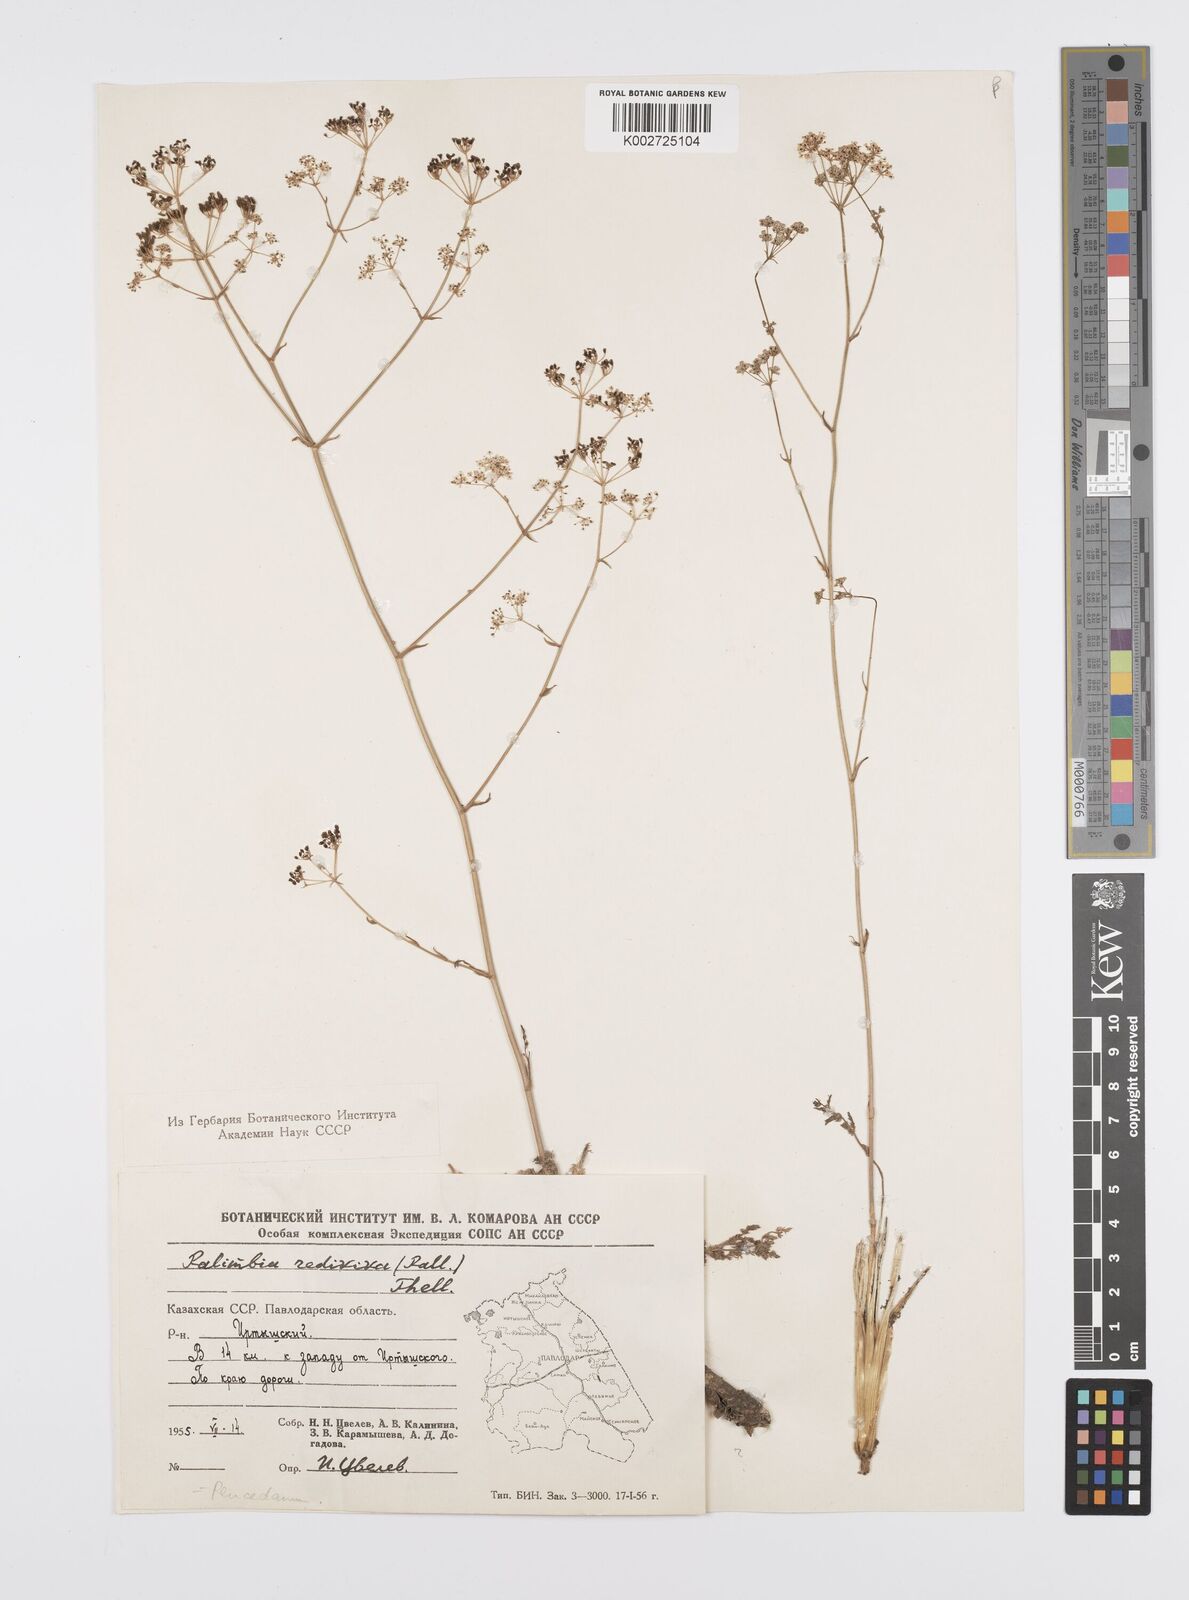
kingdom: Plantae
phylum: Tracheophyta
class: Magnoliopsida
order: Apiales
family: Apiaceae
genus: Palimbia
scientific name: Palimbia rediviva
